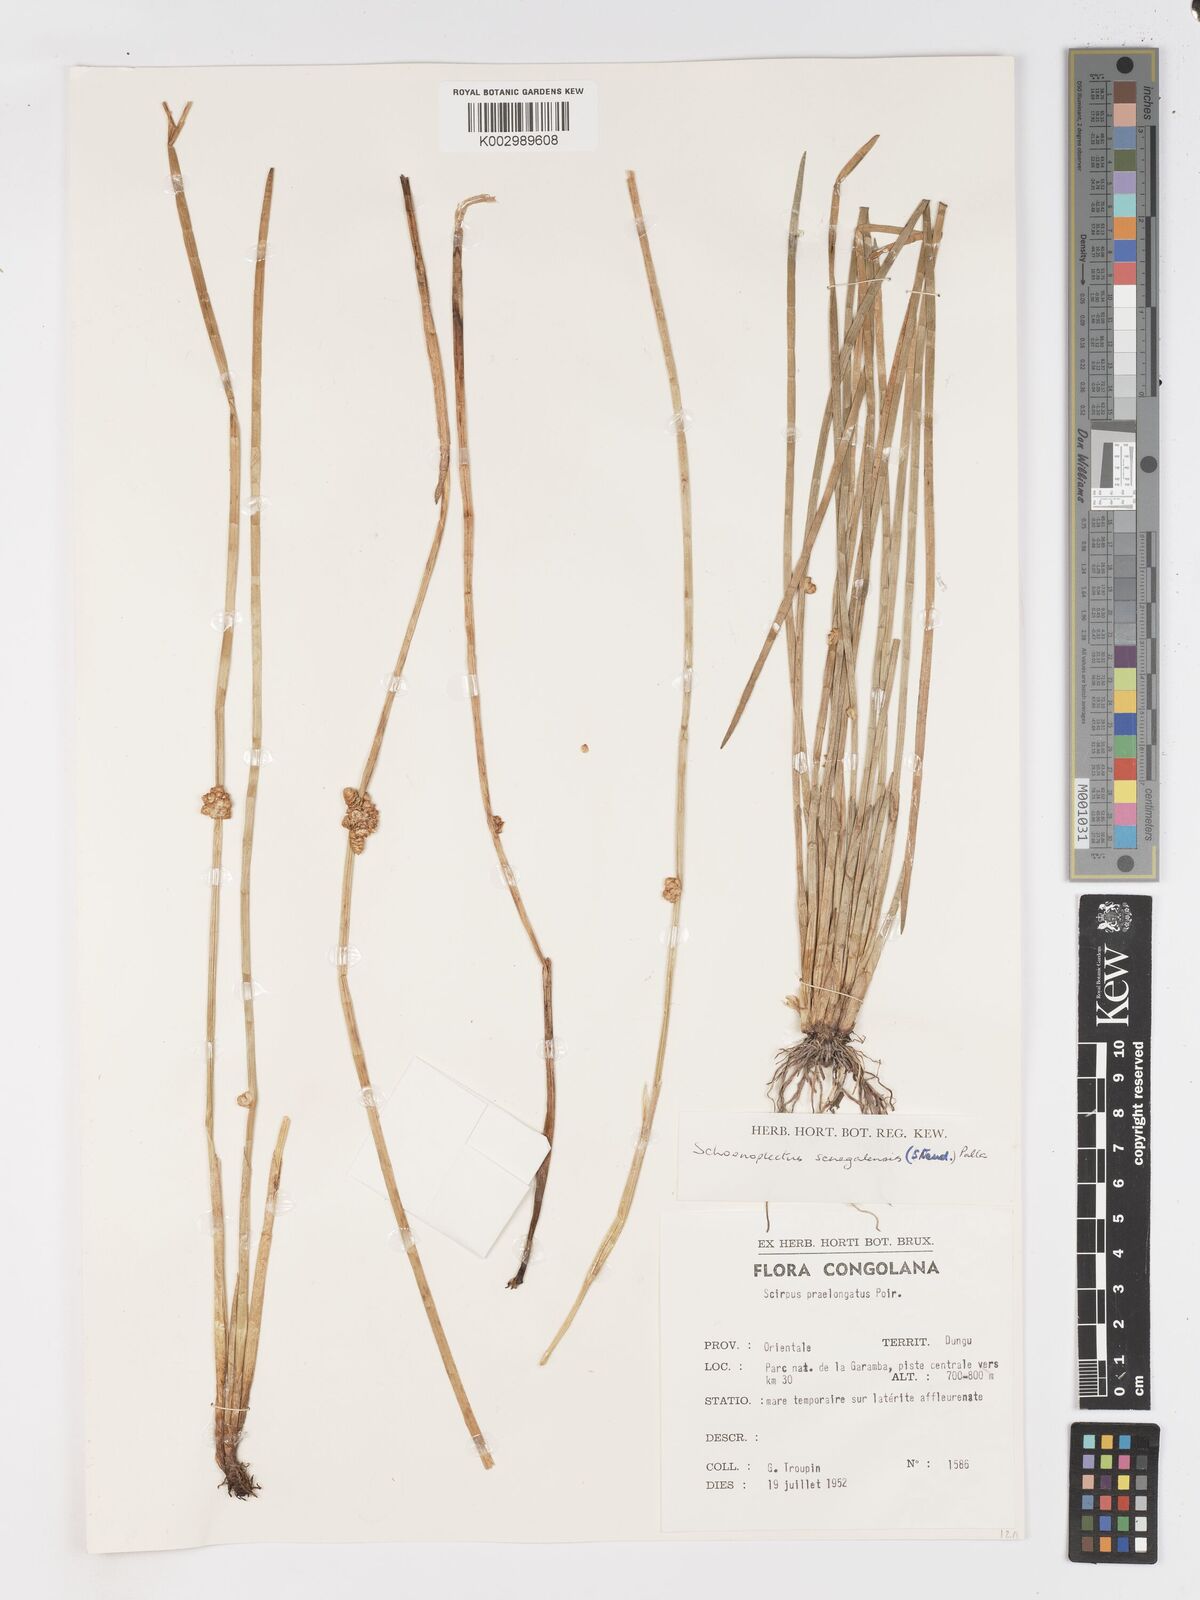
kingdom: Plantae
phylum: Tracheophyta
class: Liliopsida
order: Poales
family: Cyperaceae
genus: Schoenoplectiella
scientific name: Schoenoplectiella senegalensis
